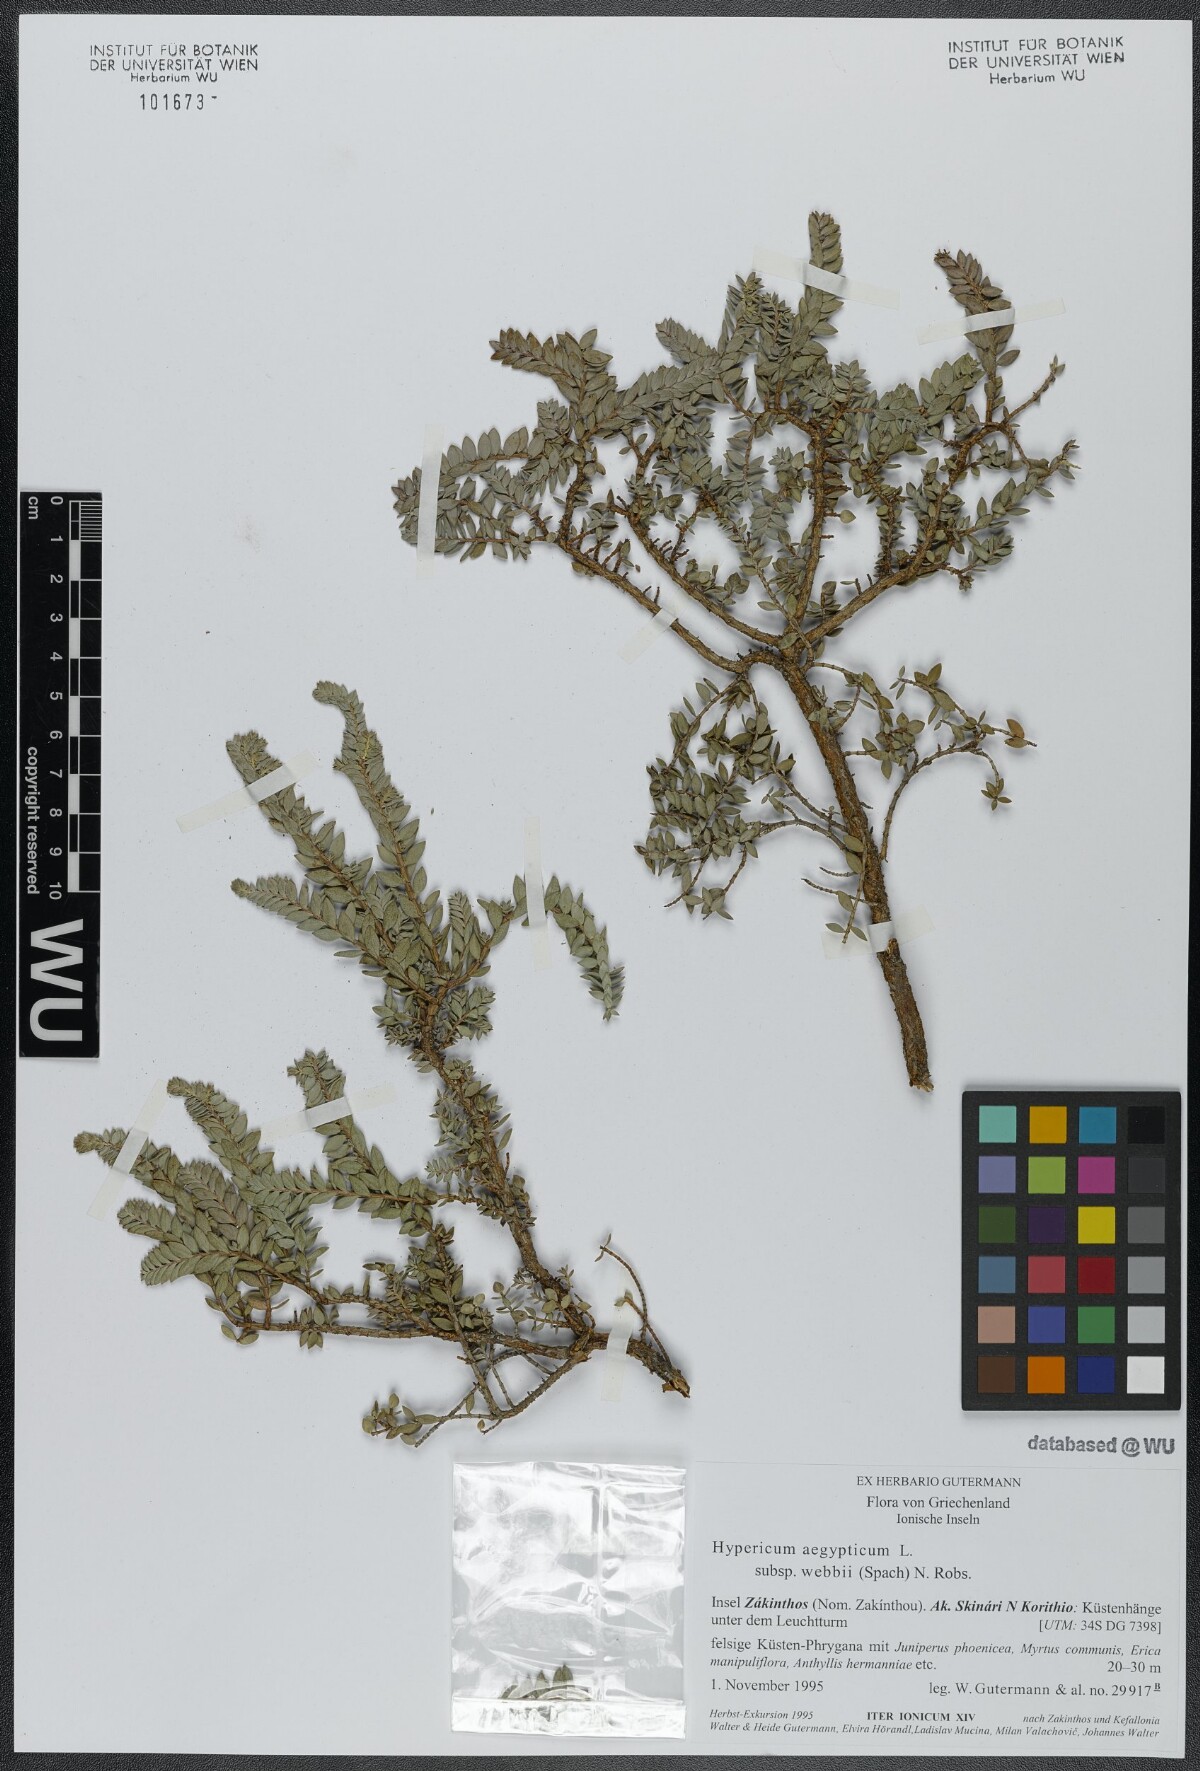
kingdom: Plantae
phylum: Tracheophyta
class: Magnoliopsida
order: Malpighiales
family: Hypericaceae
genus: Hypericum
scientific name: Hypericum aegypticum
